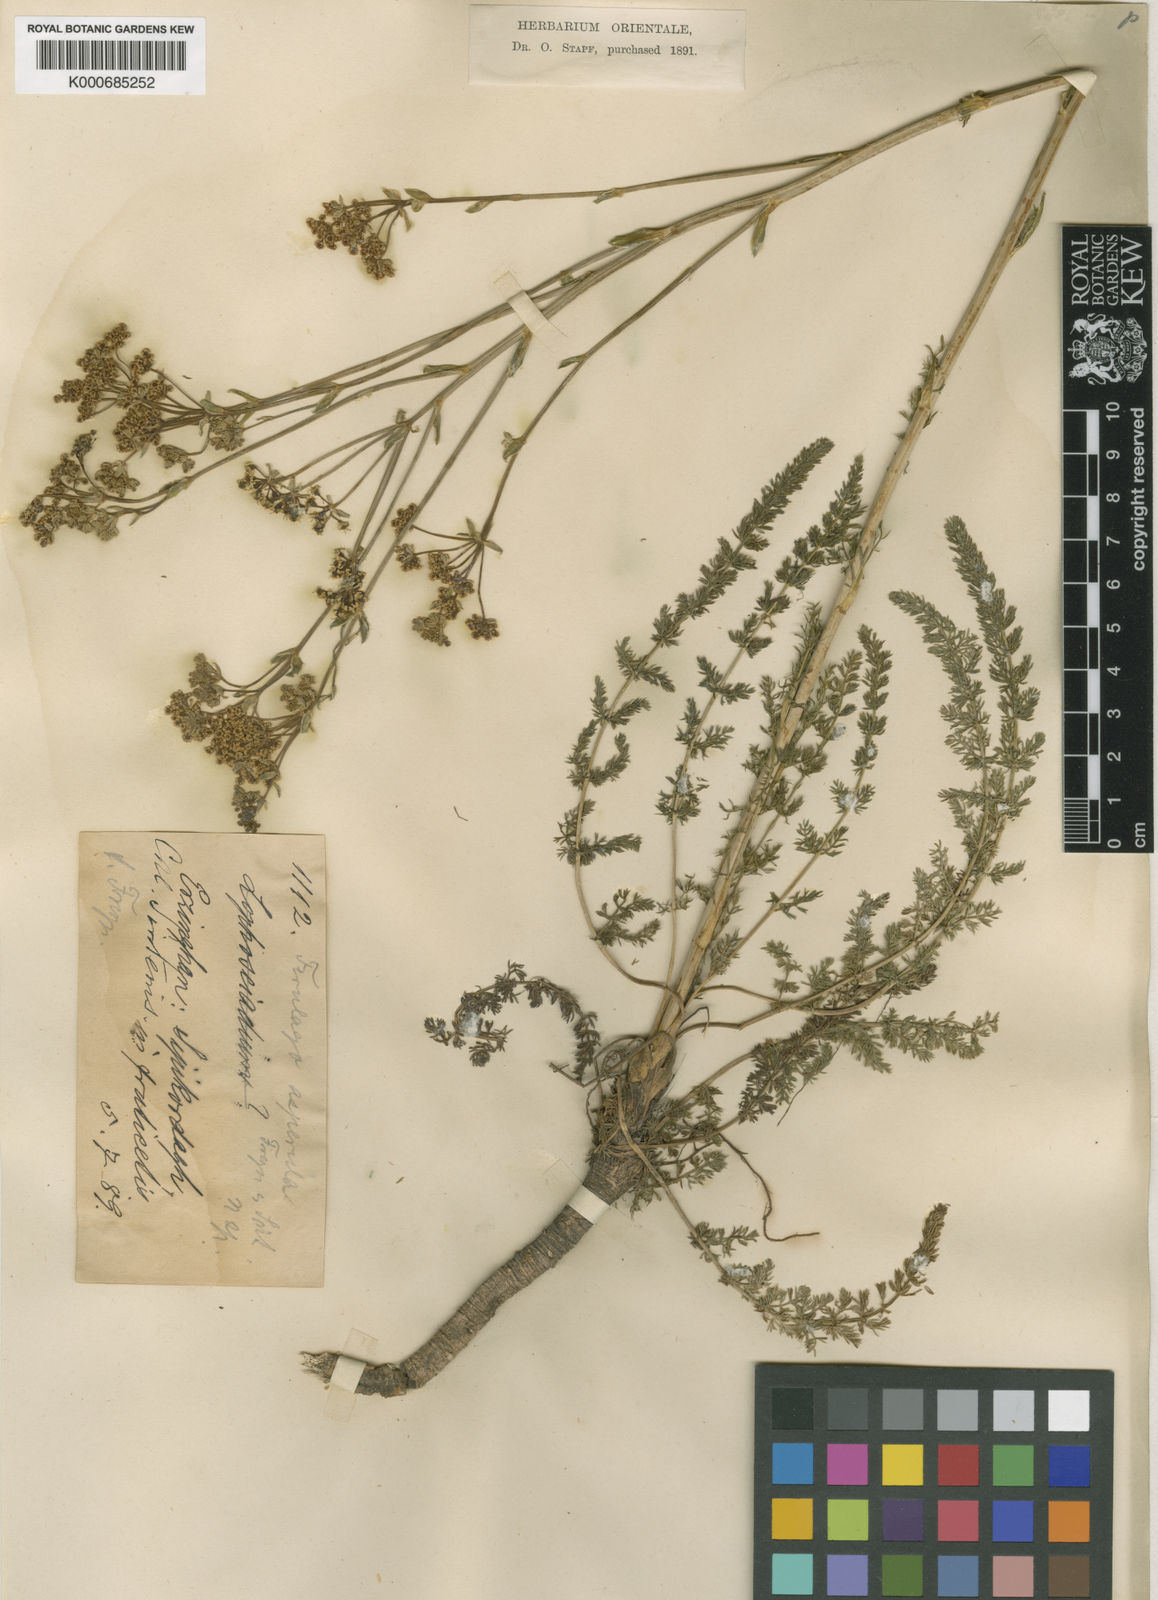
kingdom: Plantae
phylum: Tracheophyta
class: Magnoliopsida
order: Apiales
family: Apiaceae
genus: Ferulago
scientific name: Ferulago platycarpa
